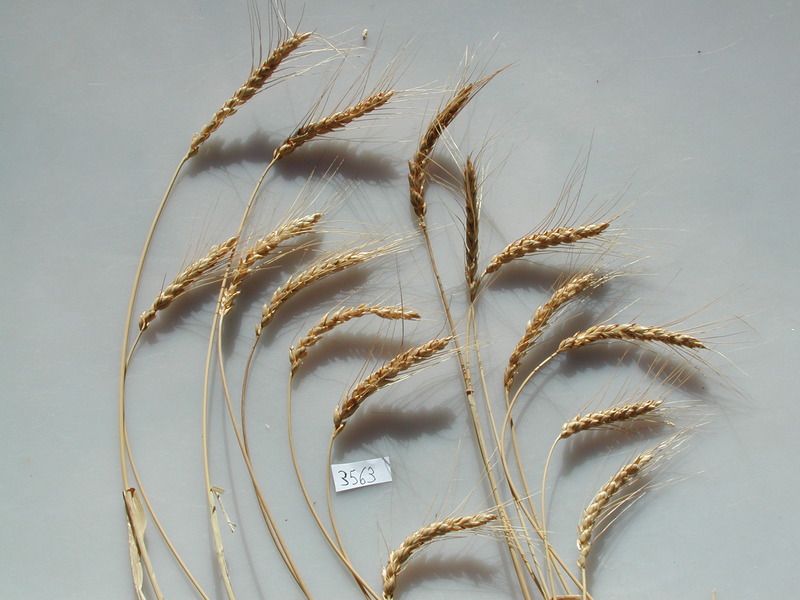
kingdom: Plantae
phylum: Tracheophyta
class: Liliopsida
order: Poales
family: Poaceae
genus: Triticum
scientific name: Triticum monococcum
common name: Wheat
